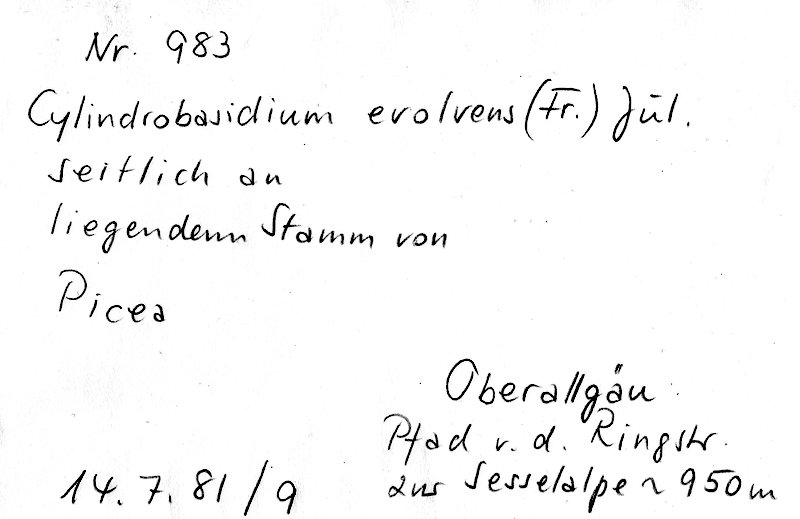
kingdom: Plantae
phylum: Tracheophyta
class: Pinopsida
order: Pinales
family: Pinaceae
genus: Picea
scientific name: Picea
